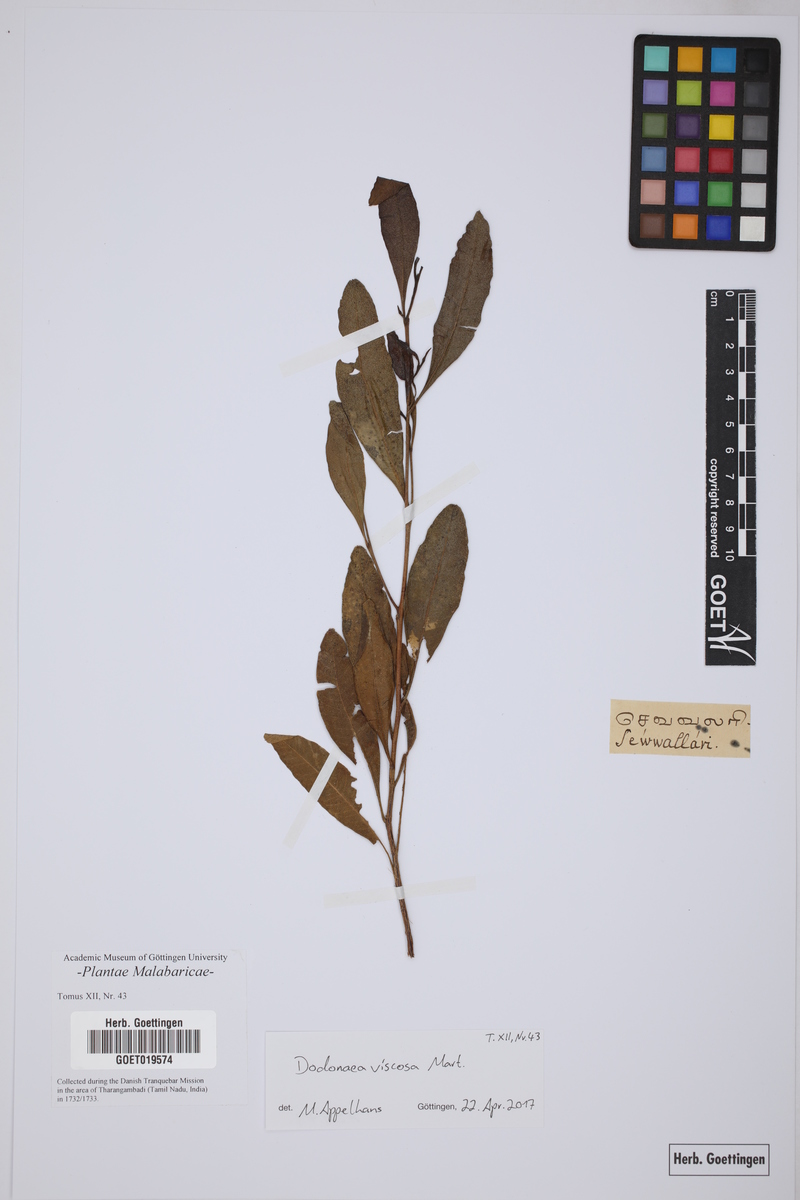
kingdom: Plantae
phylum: Tracheophyta
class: Magnoliopsida
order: Sapindales
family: Sapindaceae
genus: Dodonaea
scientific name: Dodonaea viscosa
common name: Hopbush
